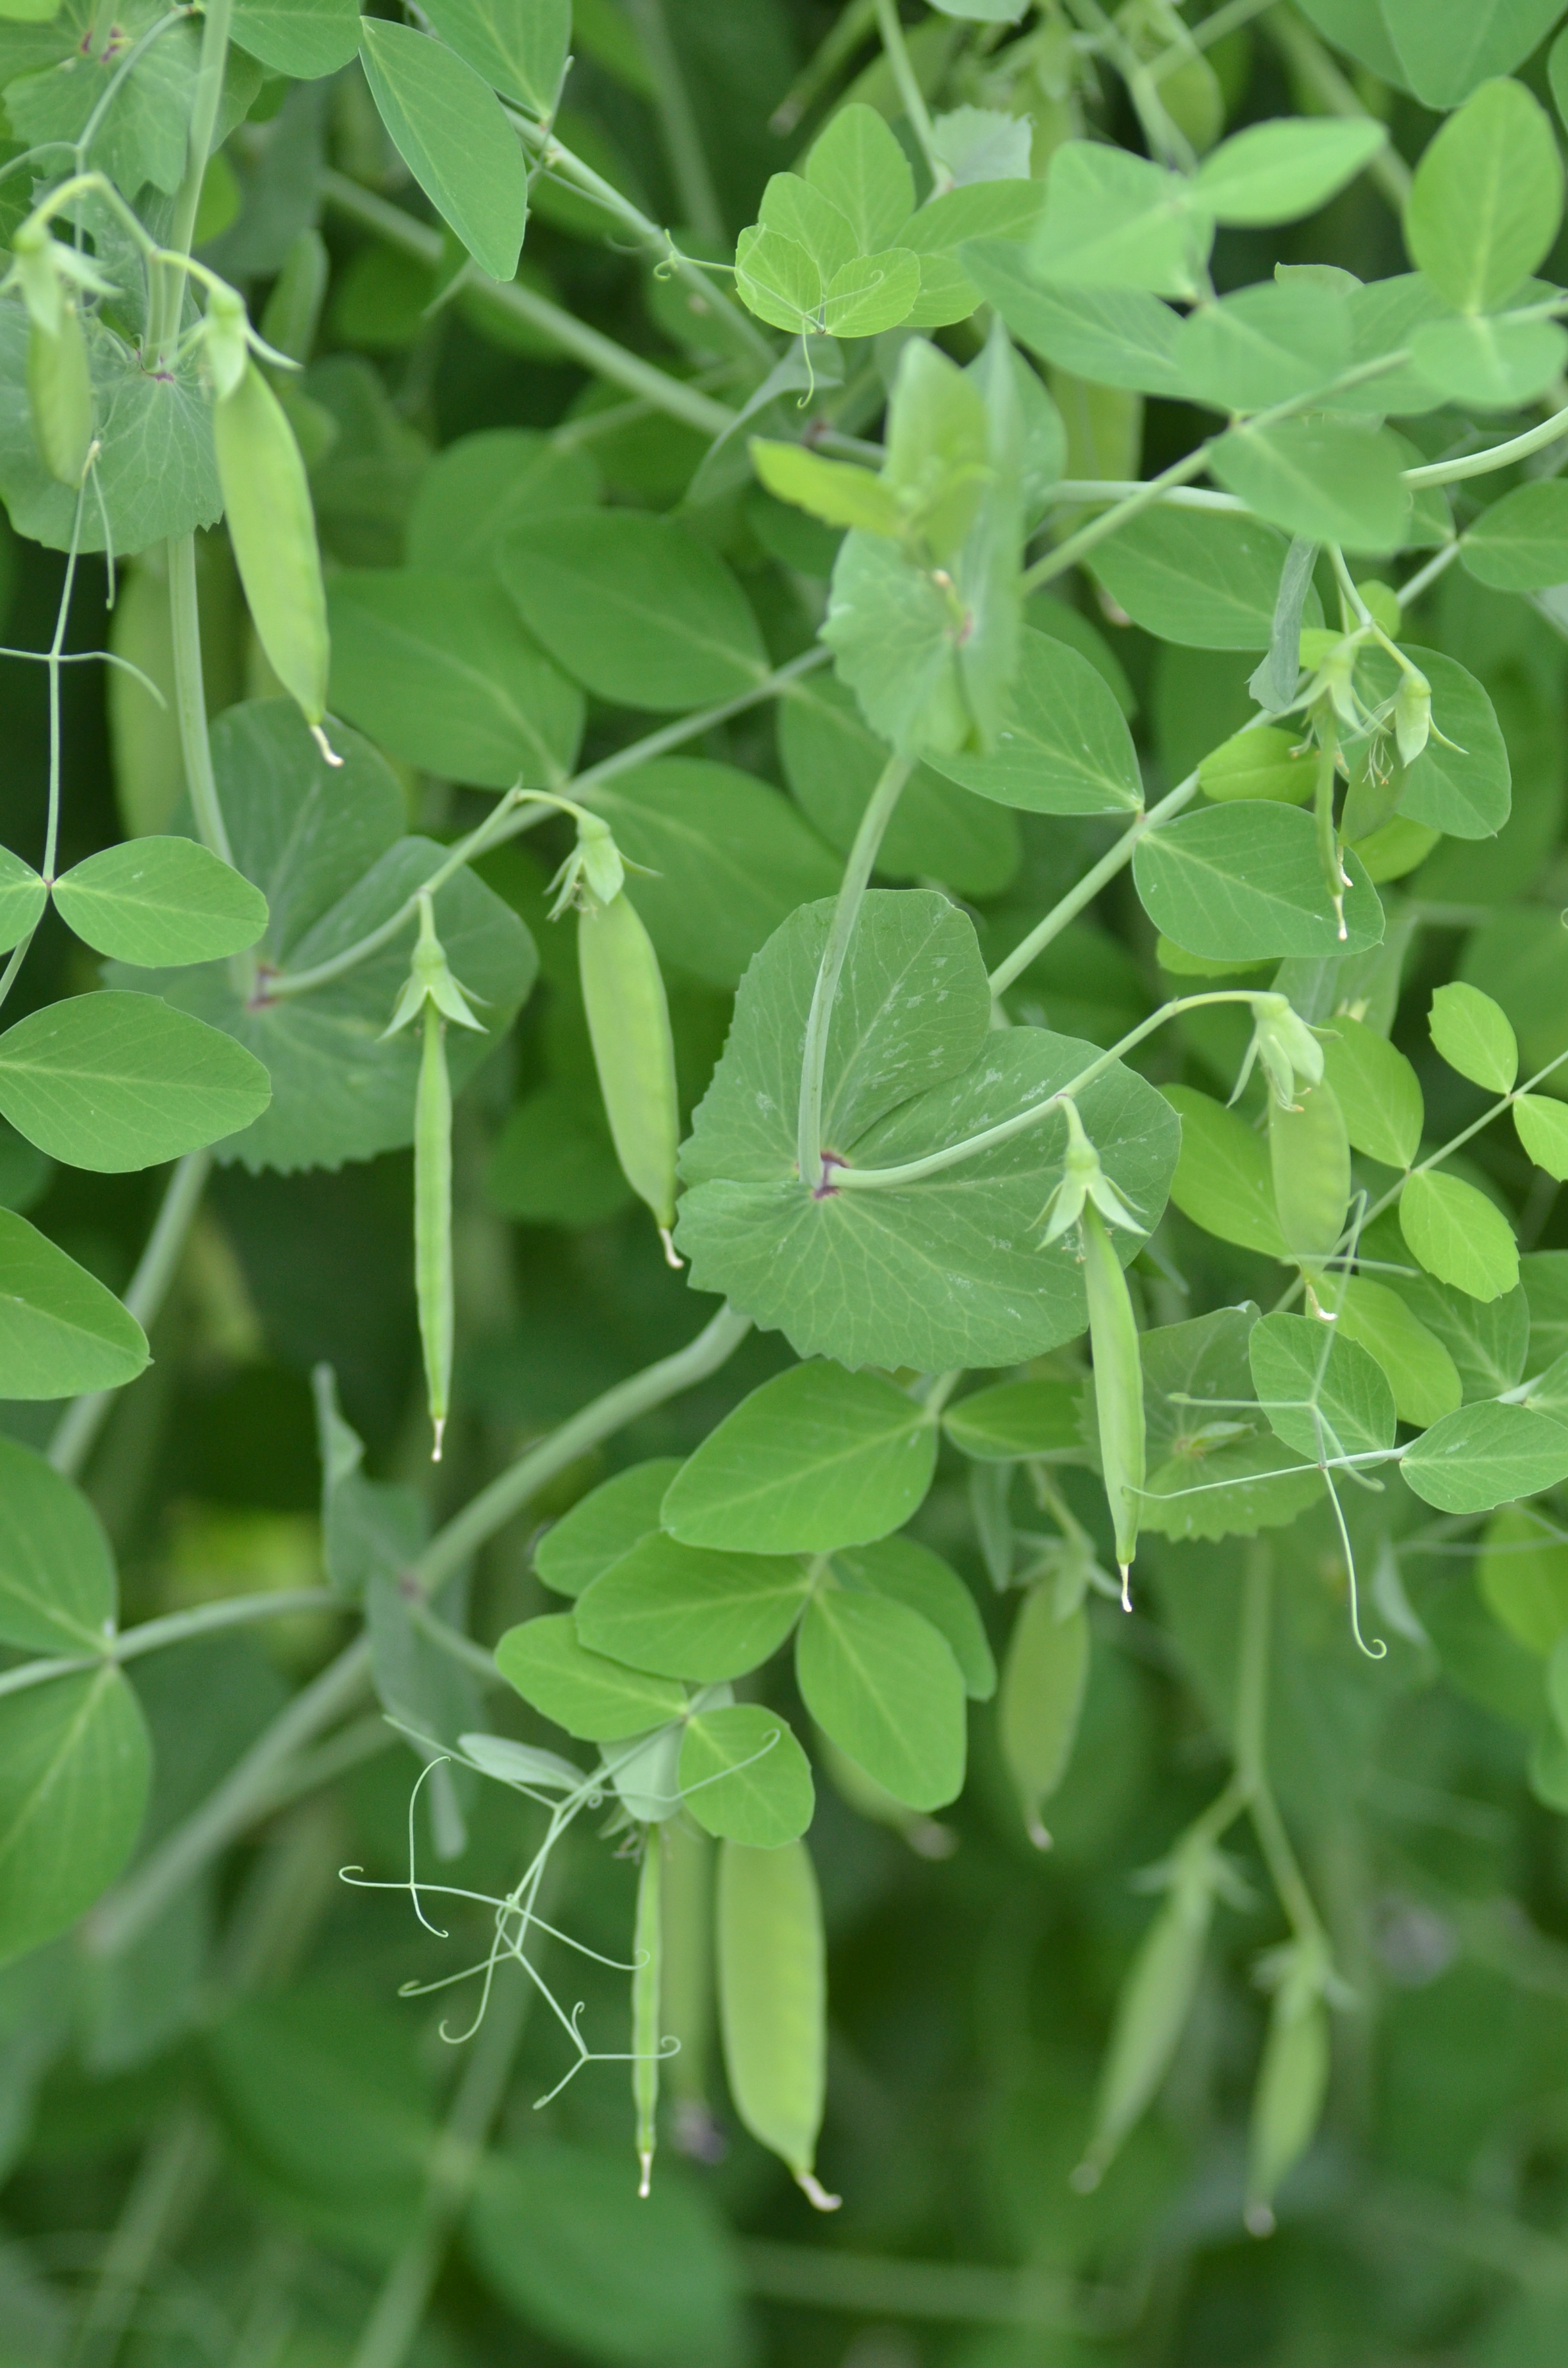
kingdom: Plantae
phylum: Tracheophyta
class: Magnoliopsida
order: Fabales
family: Fabaceae
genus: Lathyrus
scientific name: Lathyrus oleraceus
